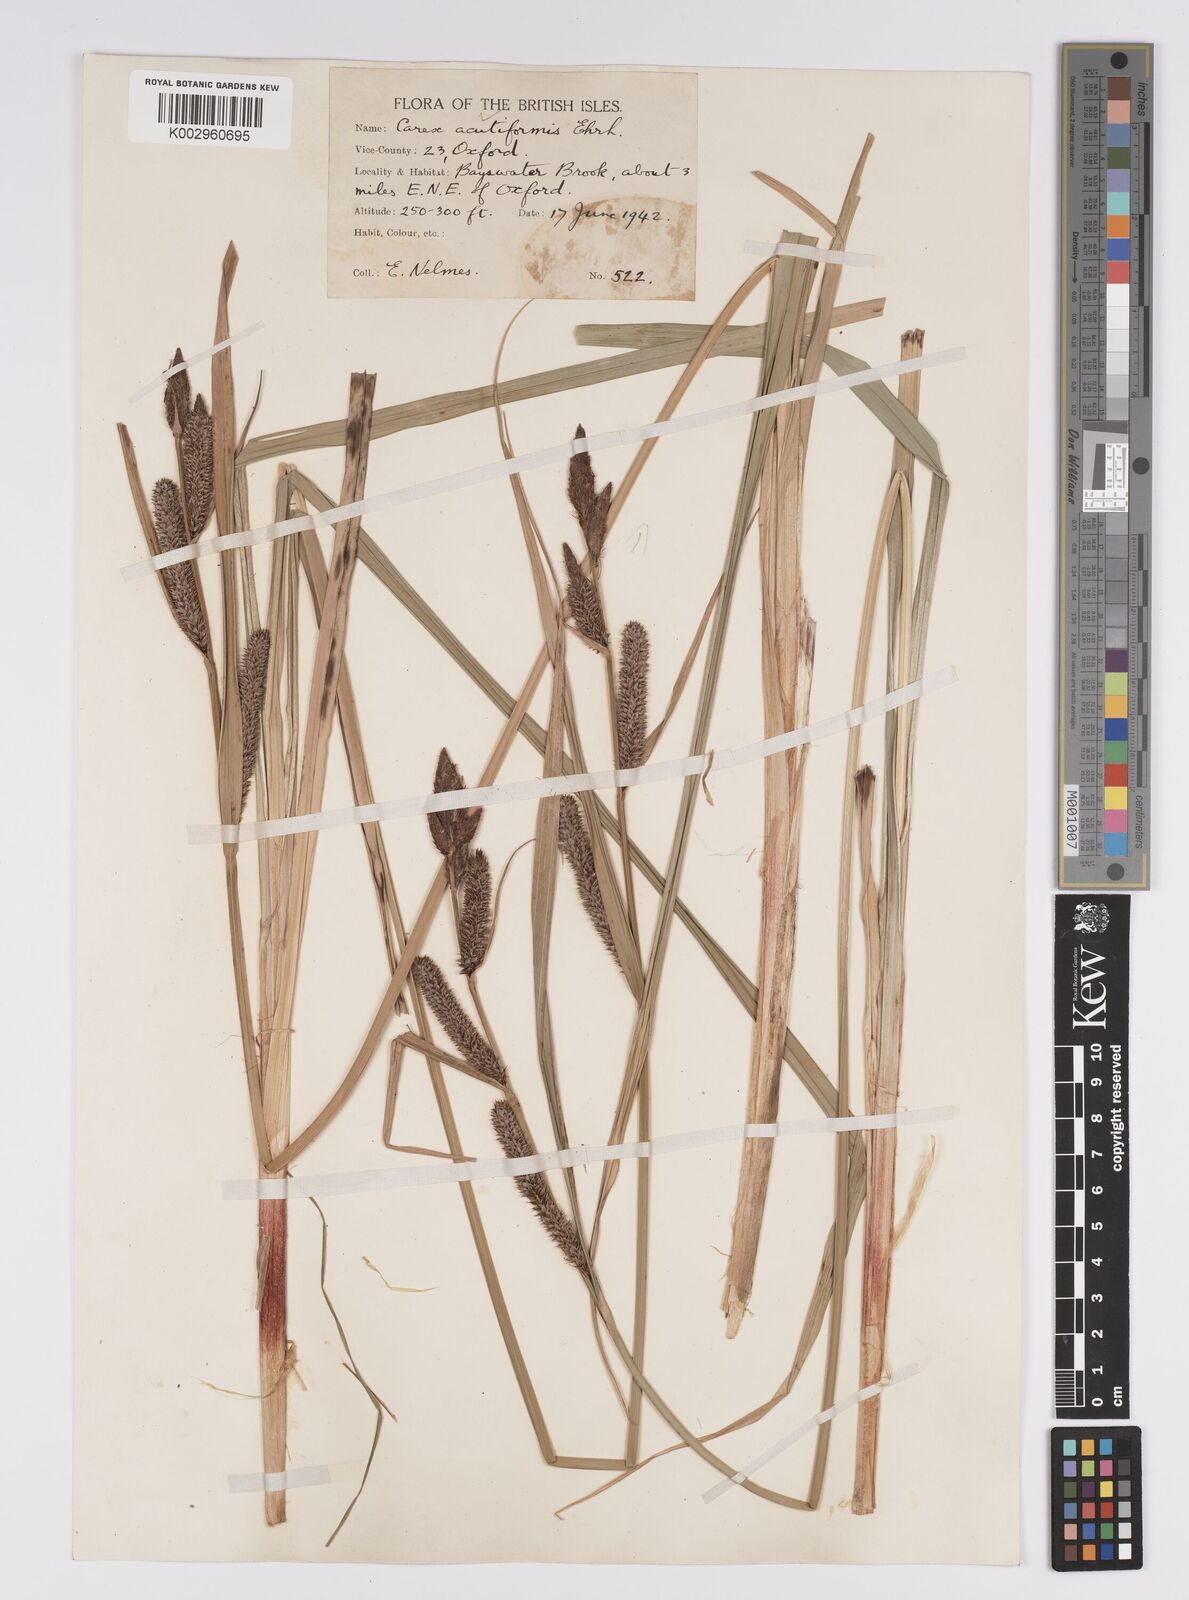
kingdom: Plantae
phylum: Tracheophyta
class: Liliopsida
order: Poales
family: Cyperaceae
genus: Carex
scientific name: Carex acutiformis
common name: Lesser pond-sedge
